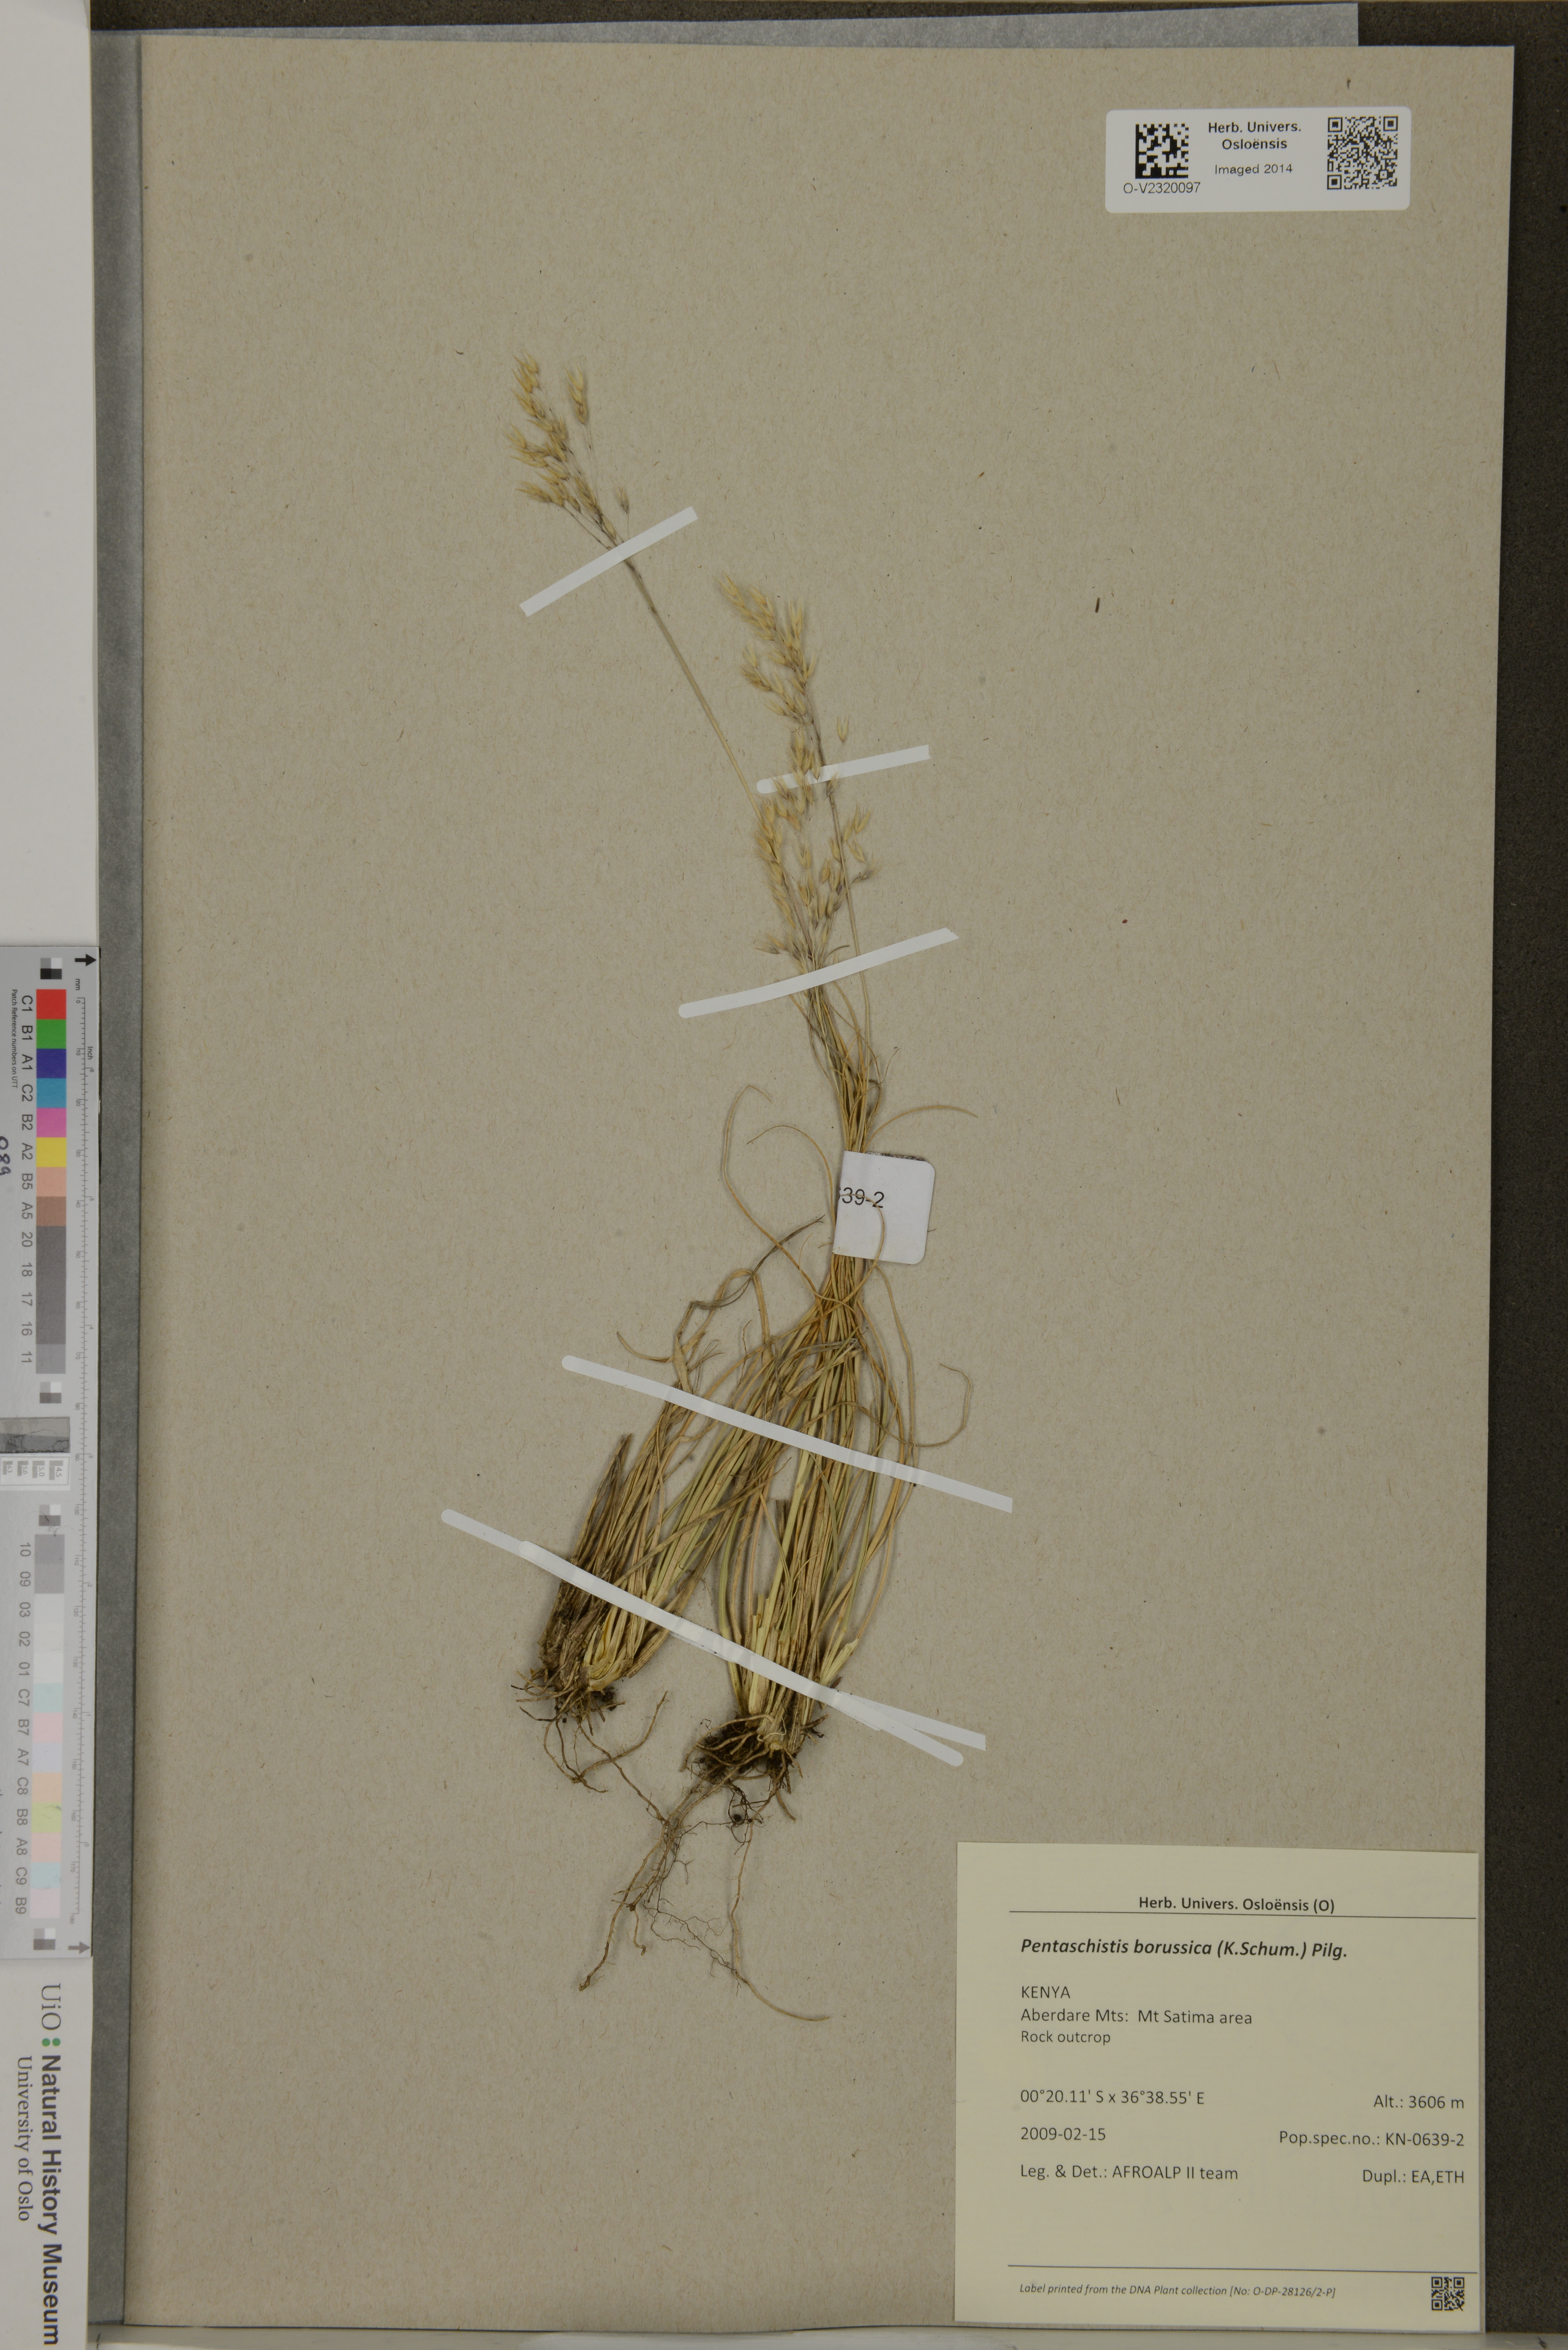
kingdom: Plantae
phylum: Tracheophyta
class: Liliopsida
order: Poales
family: Poaceae
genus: Pentameris
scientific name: Pentameris borussica
